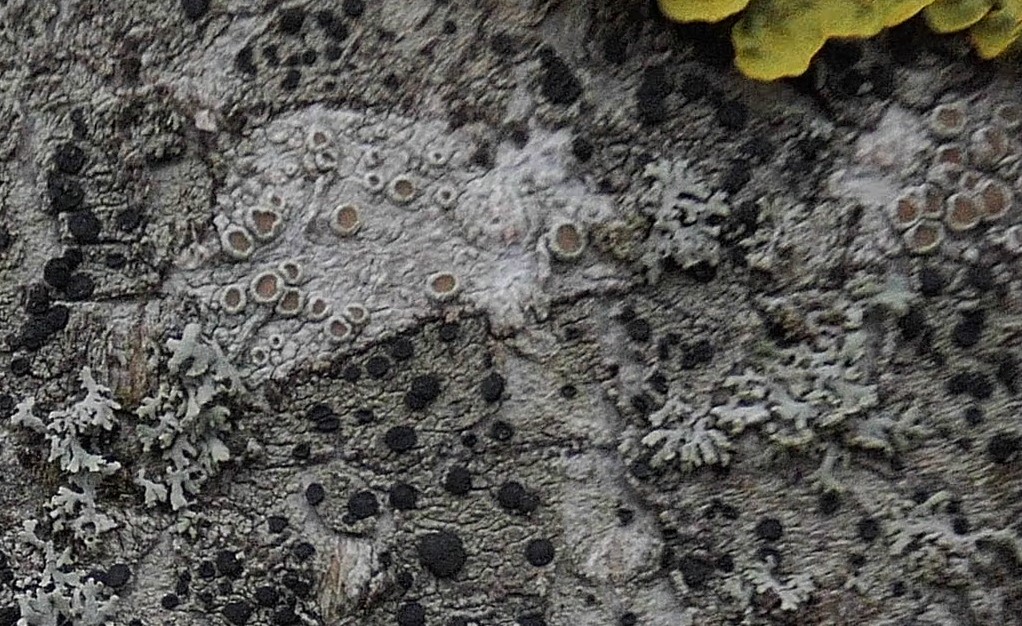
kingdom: Fungi
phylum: Ascomycota
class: Lecanoromycetes
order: Lecanorales
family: Lecanoraceae
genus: Lecanora
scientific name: Lecanora chlarotera
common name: brun kantskivelav
